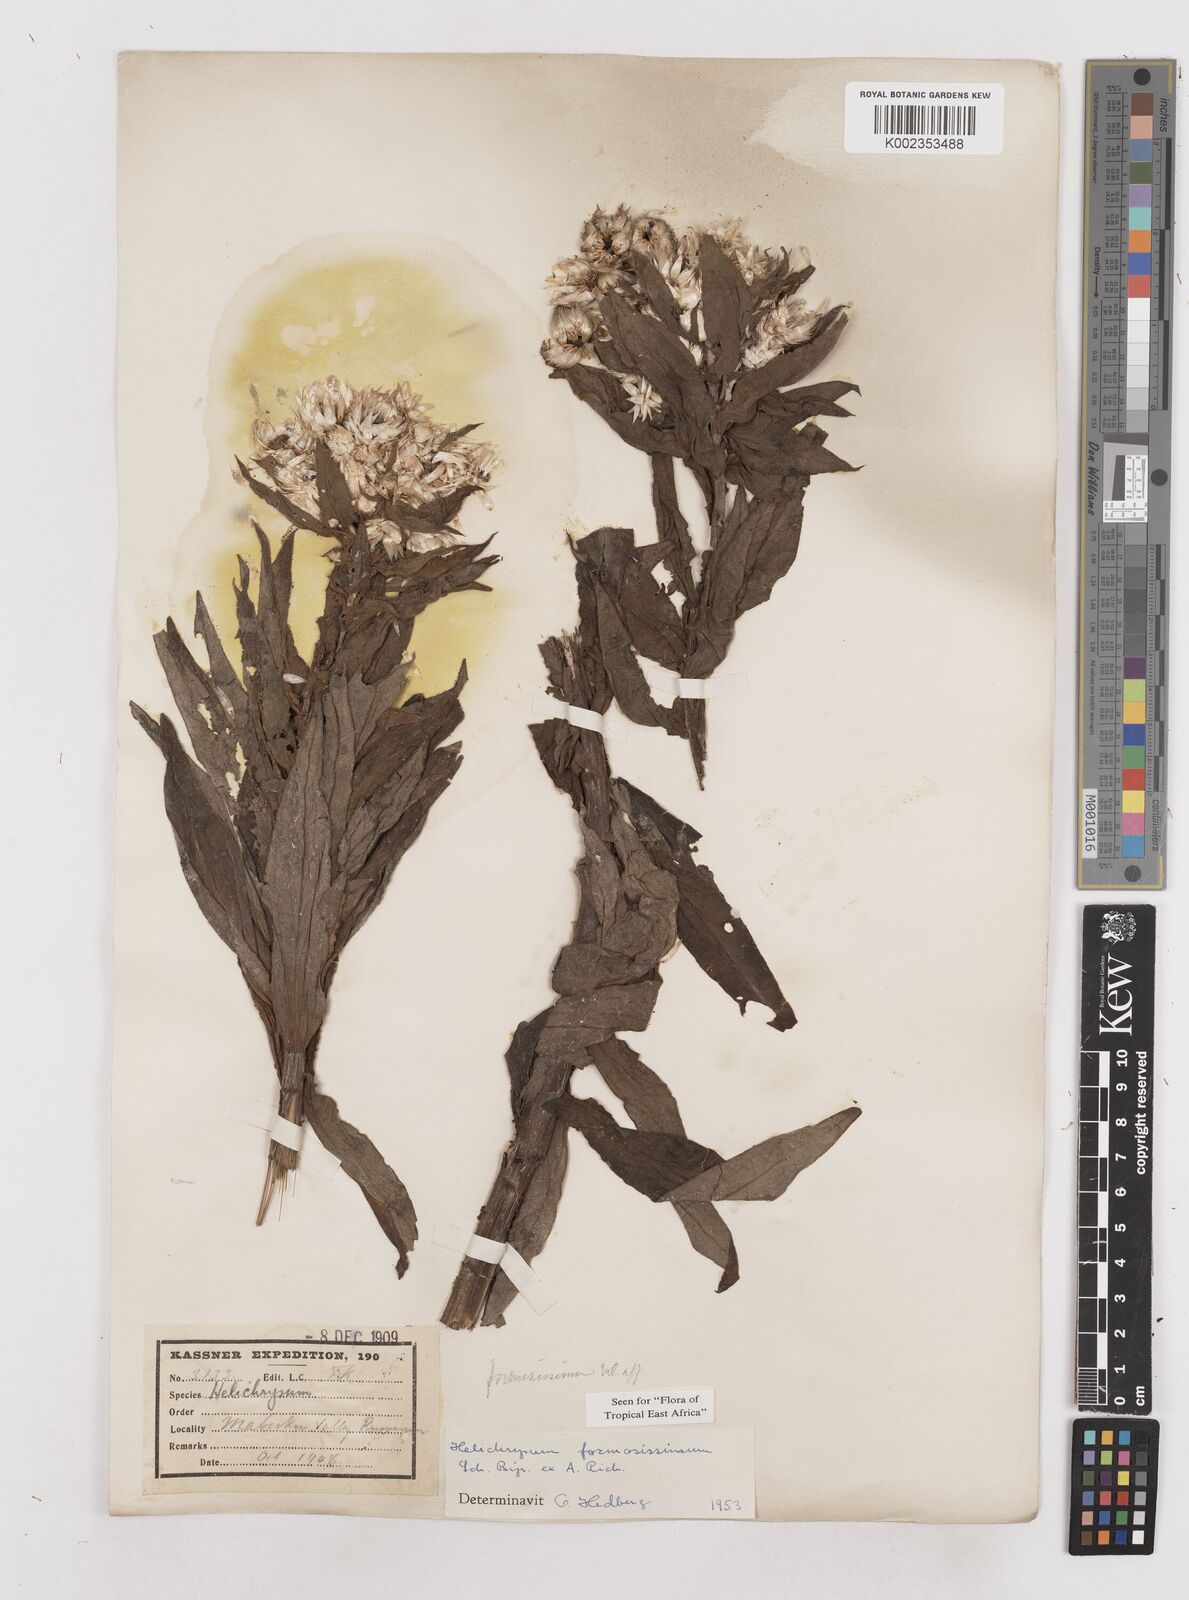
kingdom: Plantae
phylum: Tracheophyta
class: Magnoliopsida
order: Asterales
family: Asteraceae
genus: Helichrysum
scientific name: Helichrysum formosissimum
